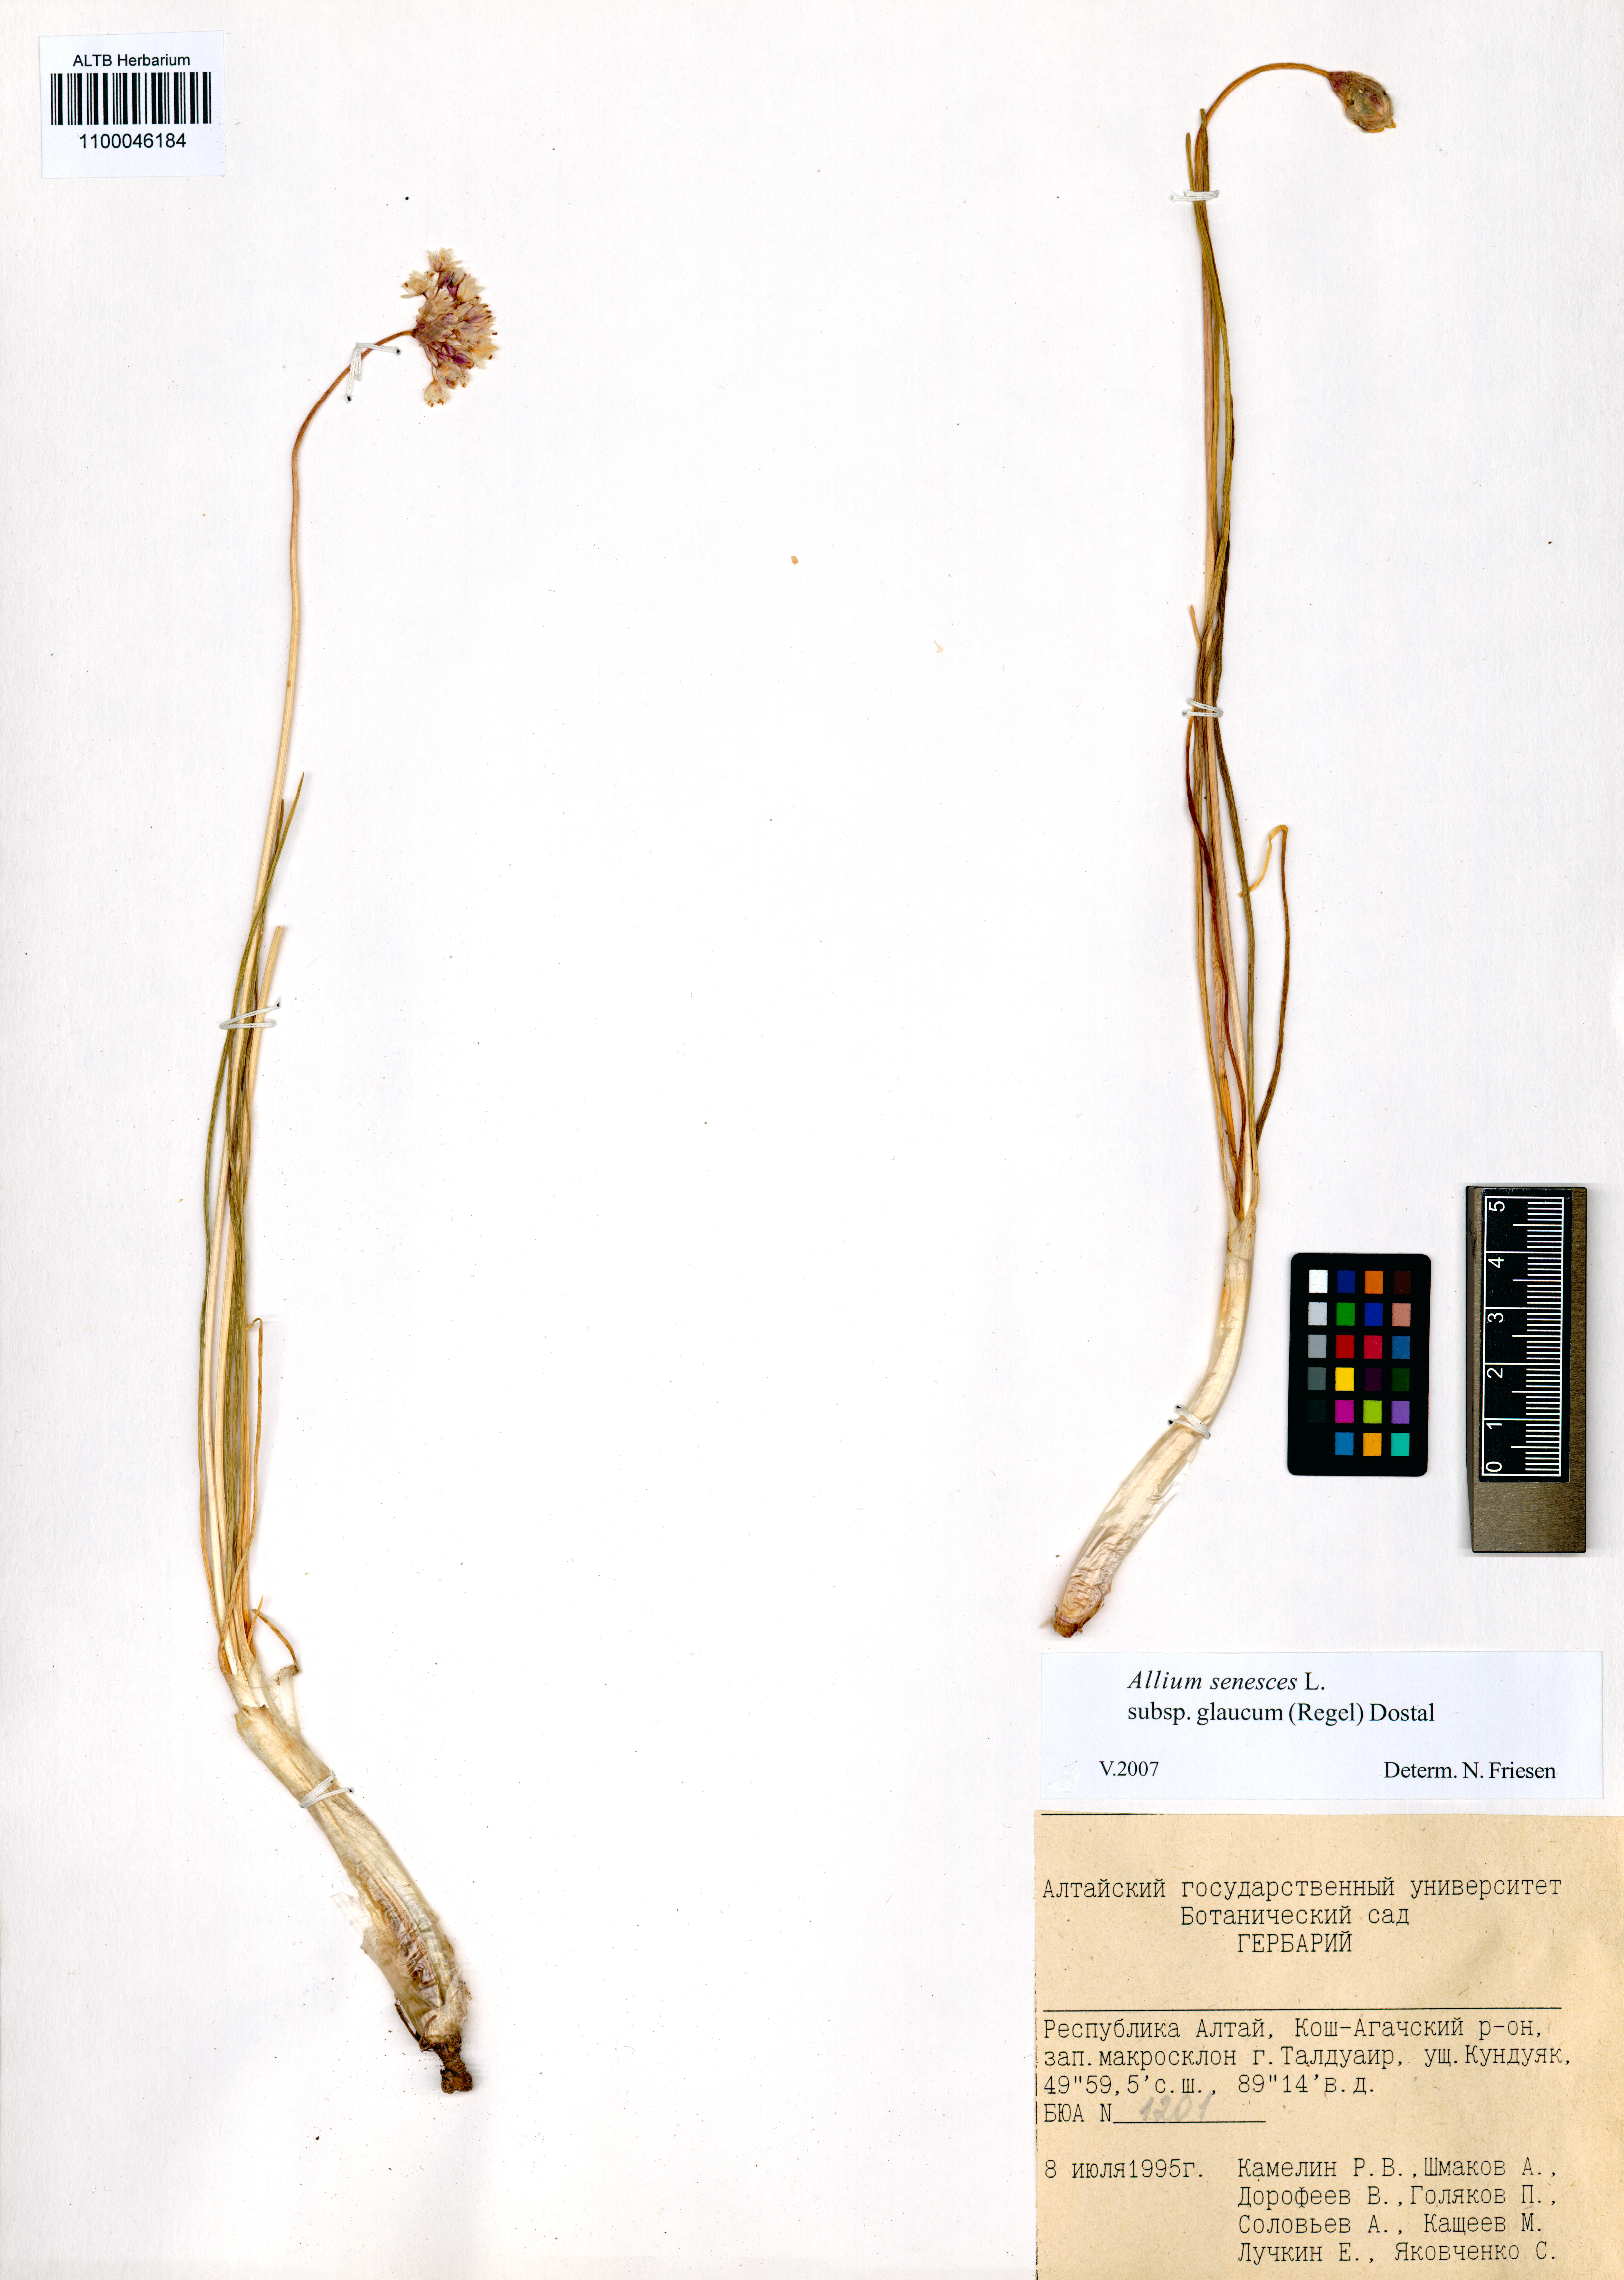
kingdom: Plantae
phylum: Tracheophyta
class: Liliopsida
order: Asparagales
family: Amaryllidaceae
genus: Allium
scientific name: Allium senescens
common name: German garlic
